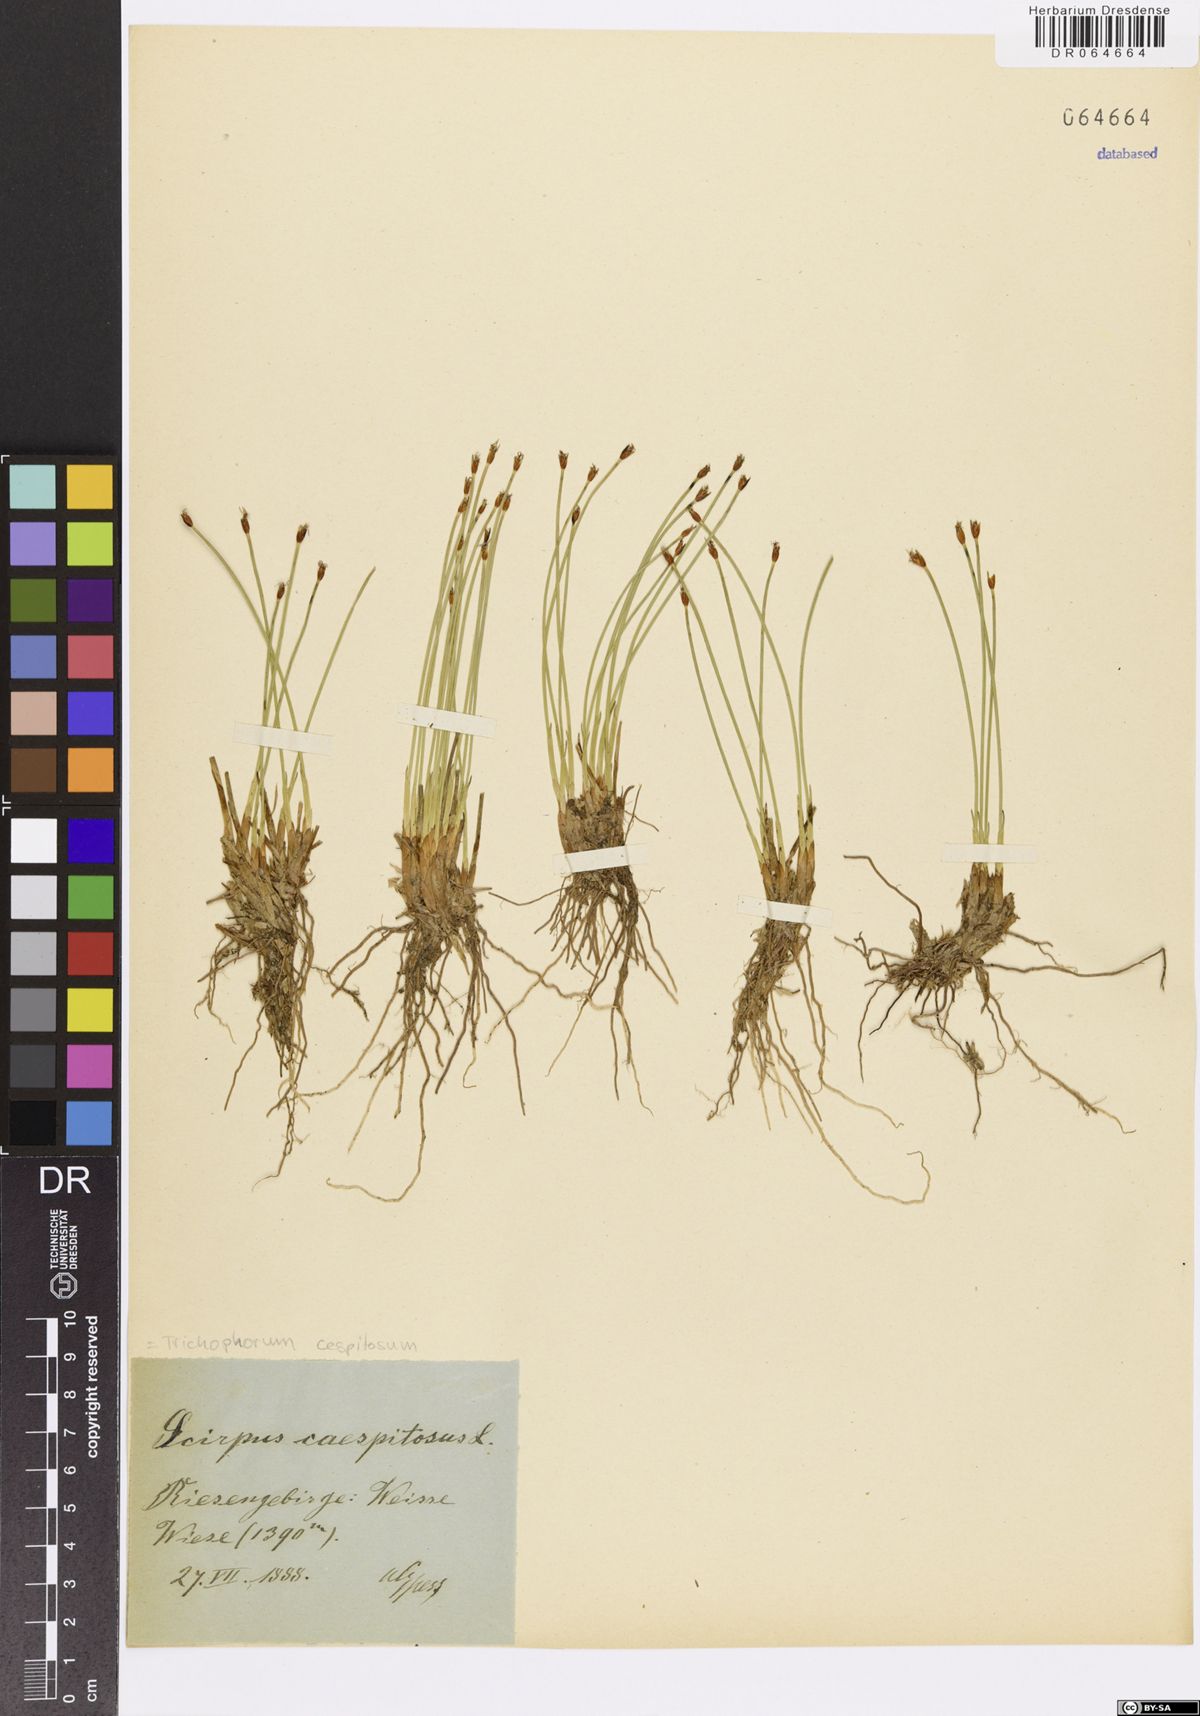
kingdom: Plantae
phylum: Tracheophyta
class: Liliopsida
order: Poales
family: Cyperaceae
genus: Trichophorum
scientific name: Trichophorum cespitosum
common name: Cespitose bulrush
